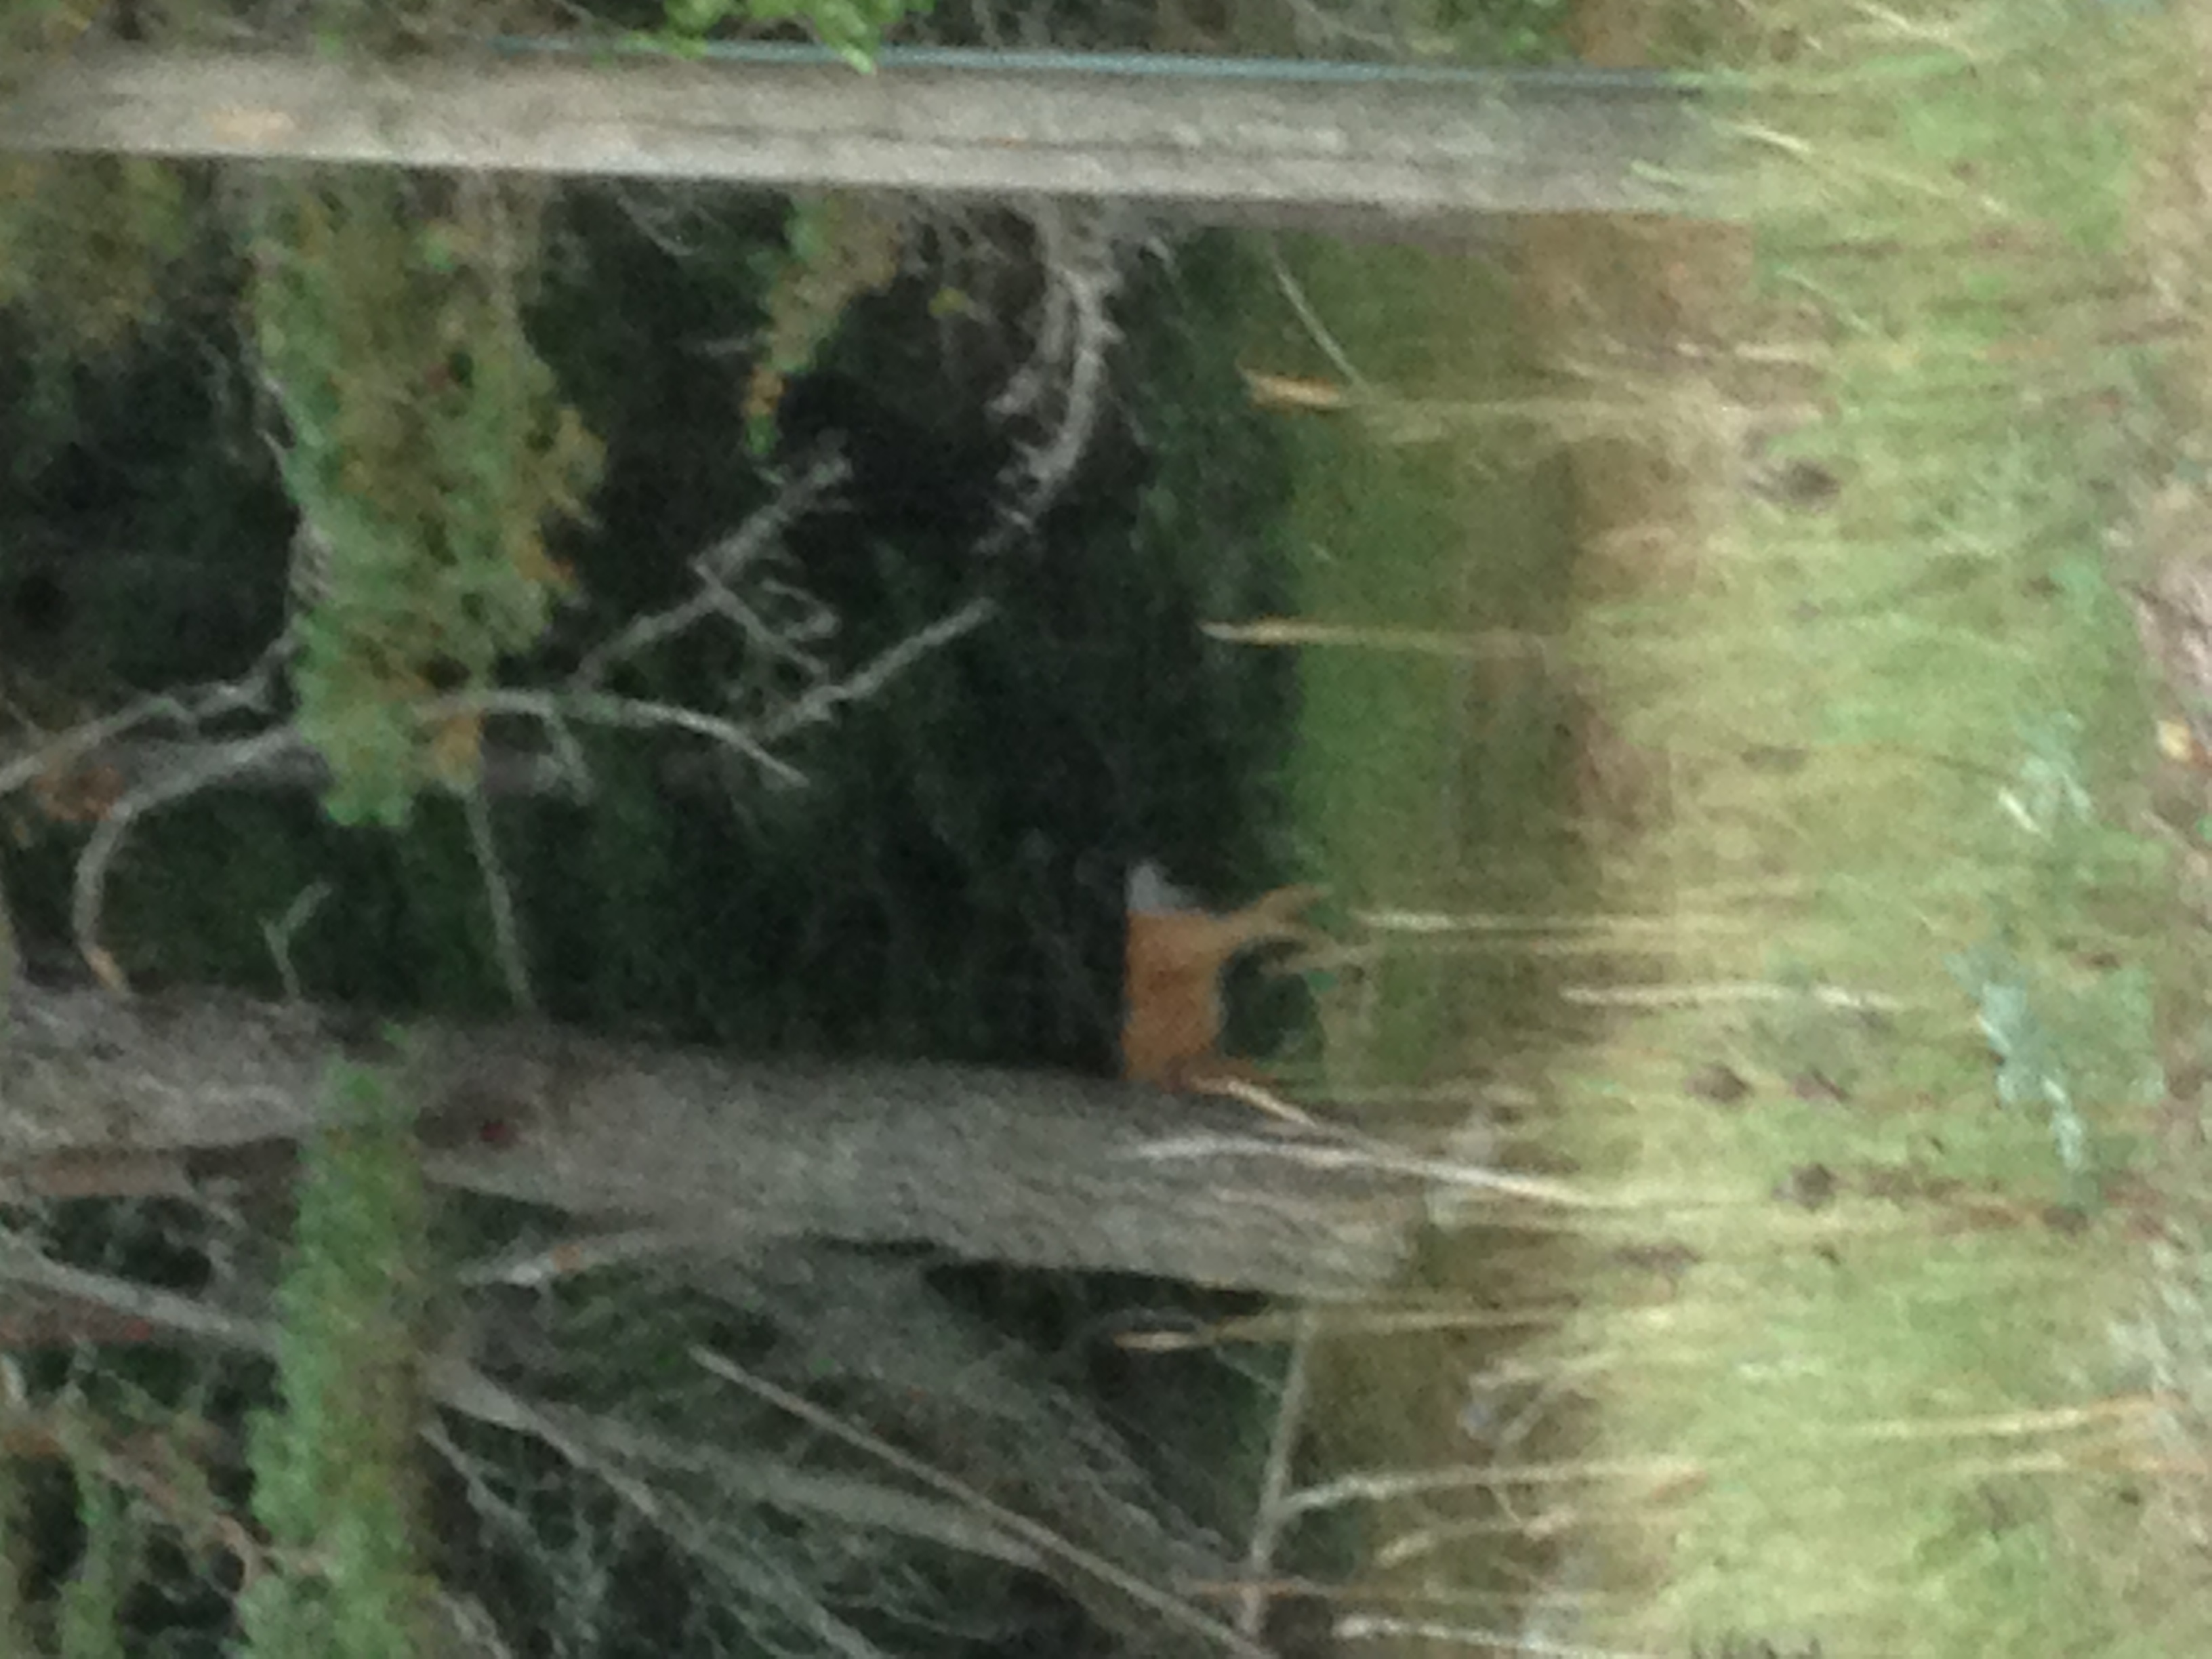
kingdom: Animalia
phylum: Chordata
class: Mammalia
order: Artiodactyla
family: Cervidae
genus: Odocoileus
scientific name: Odocoileus virginianus
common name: White-tailed deer
